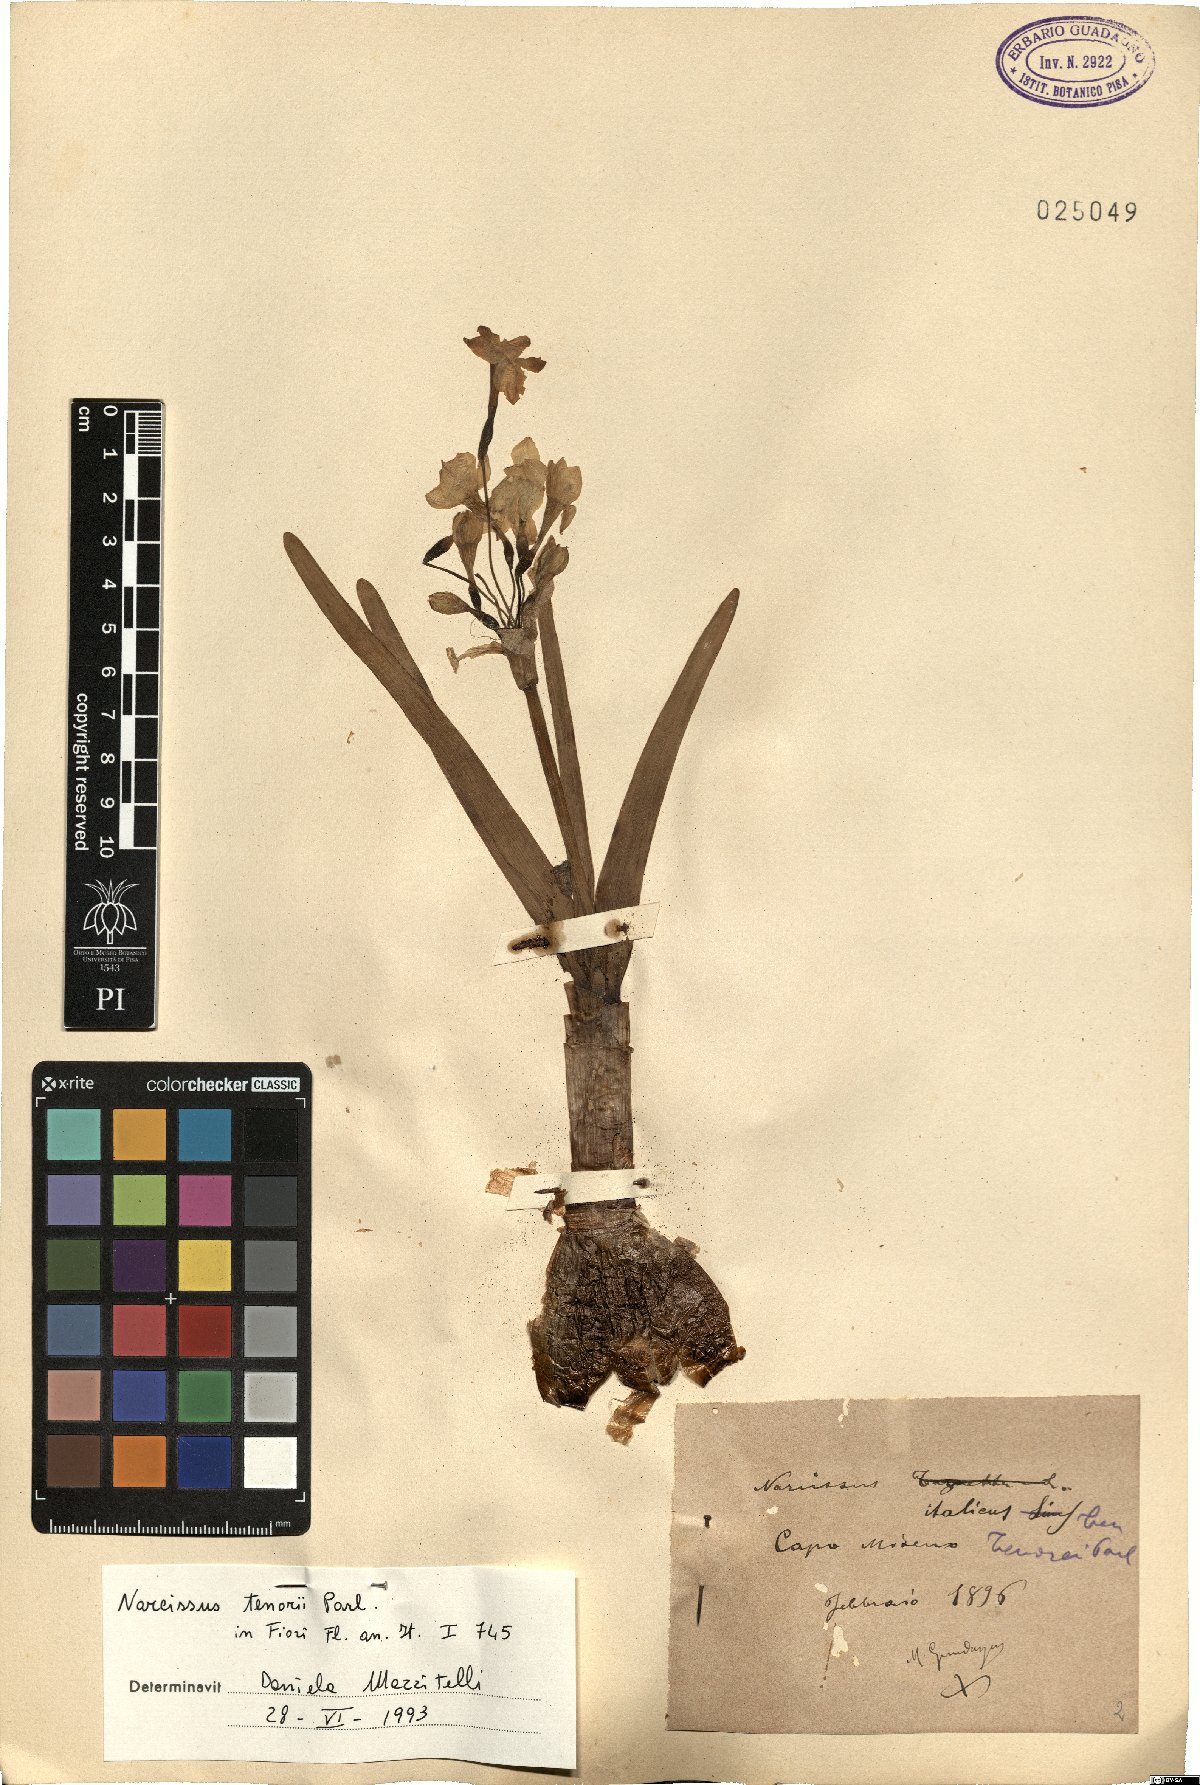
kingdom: Plantae
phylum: Tracheophyta
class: Liliopsida
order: Asparagales
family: Amaryllidaceae
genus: Narcissus
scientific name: Narcissus tazetta
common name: Bunch-flowered daffodil
